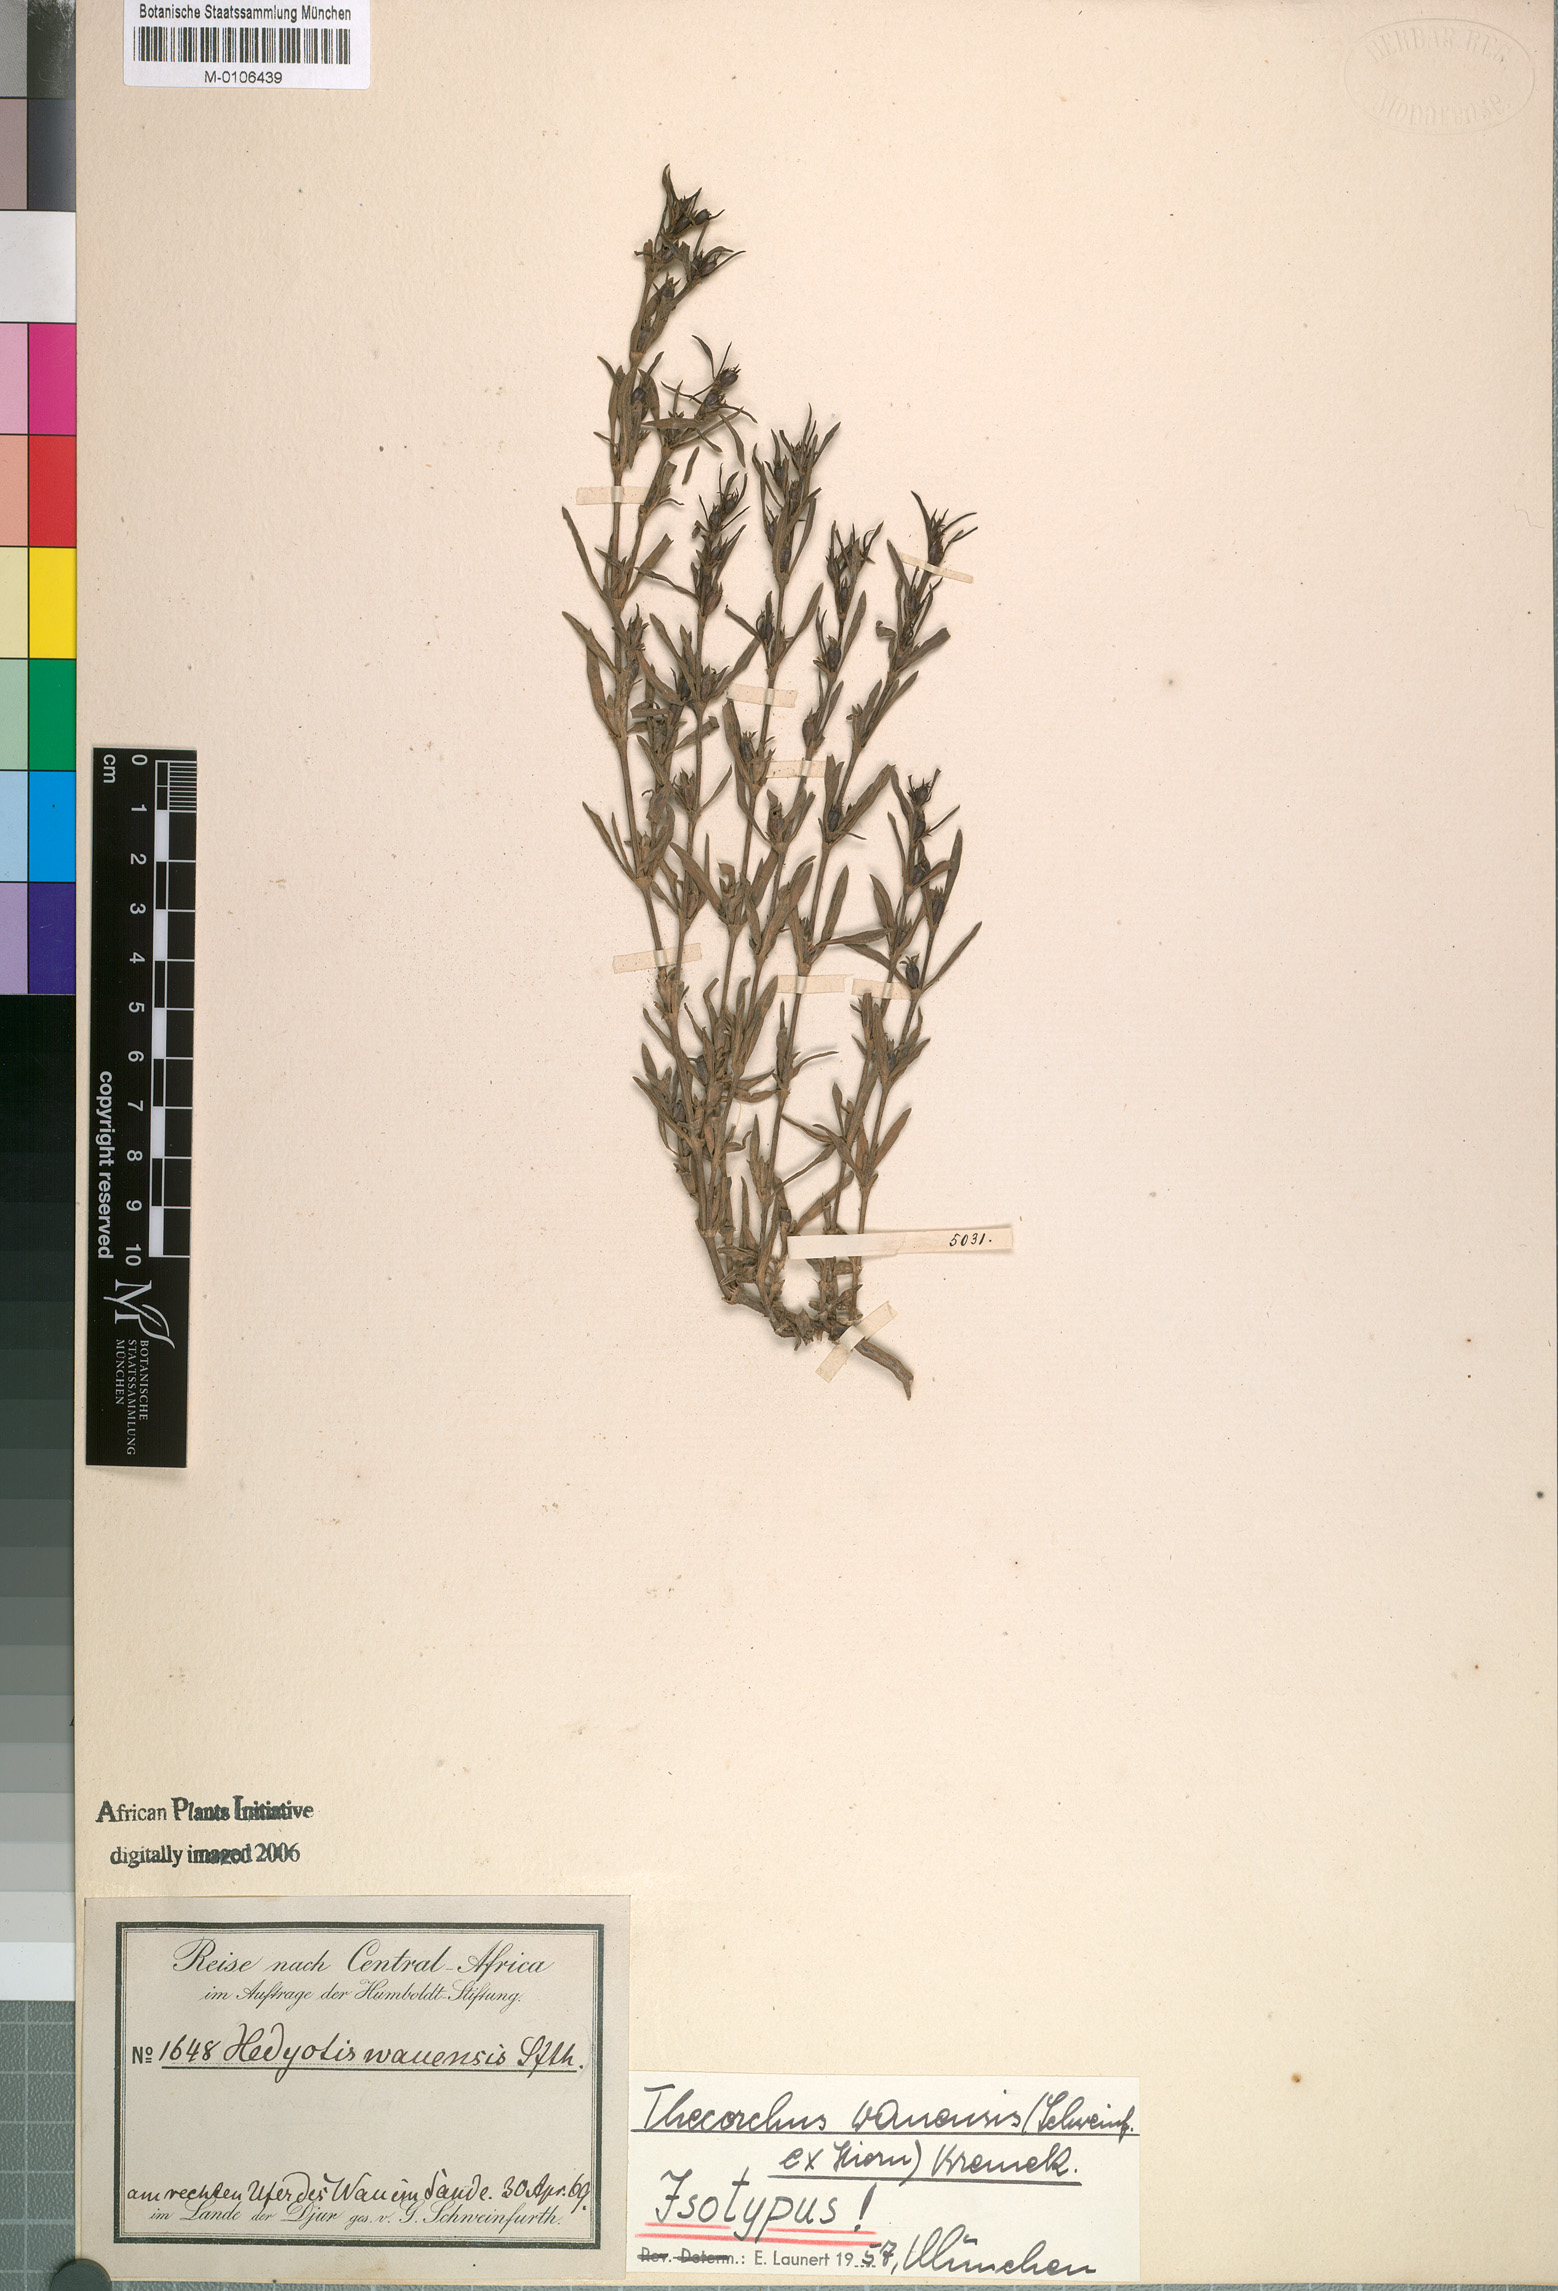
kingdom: Plantae
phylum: Tracheophyta
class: Magnoliopsida
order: Gentianales
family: Rubiaceae
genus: Oldenlandia
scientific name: Oldenlandia wauensis
